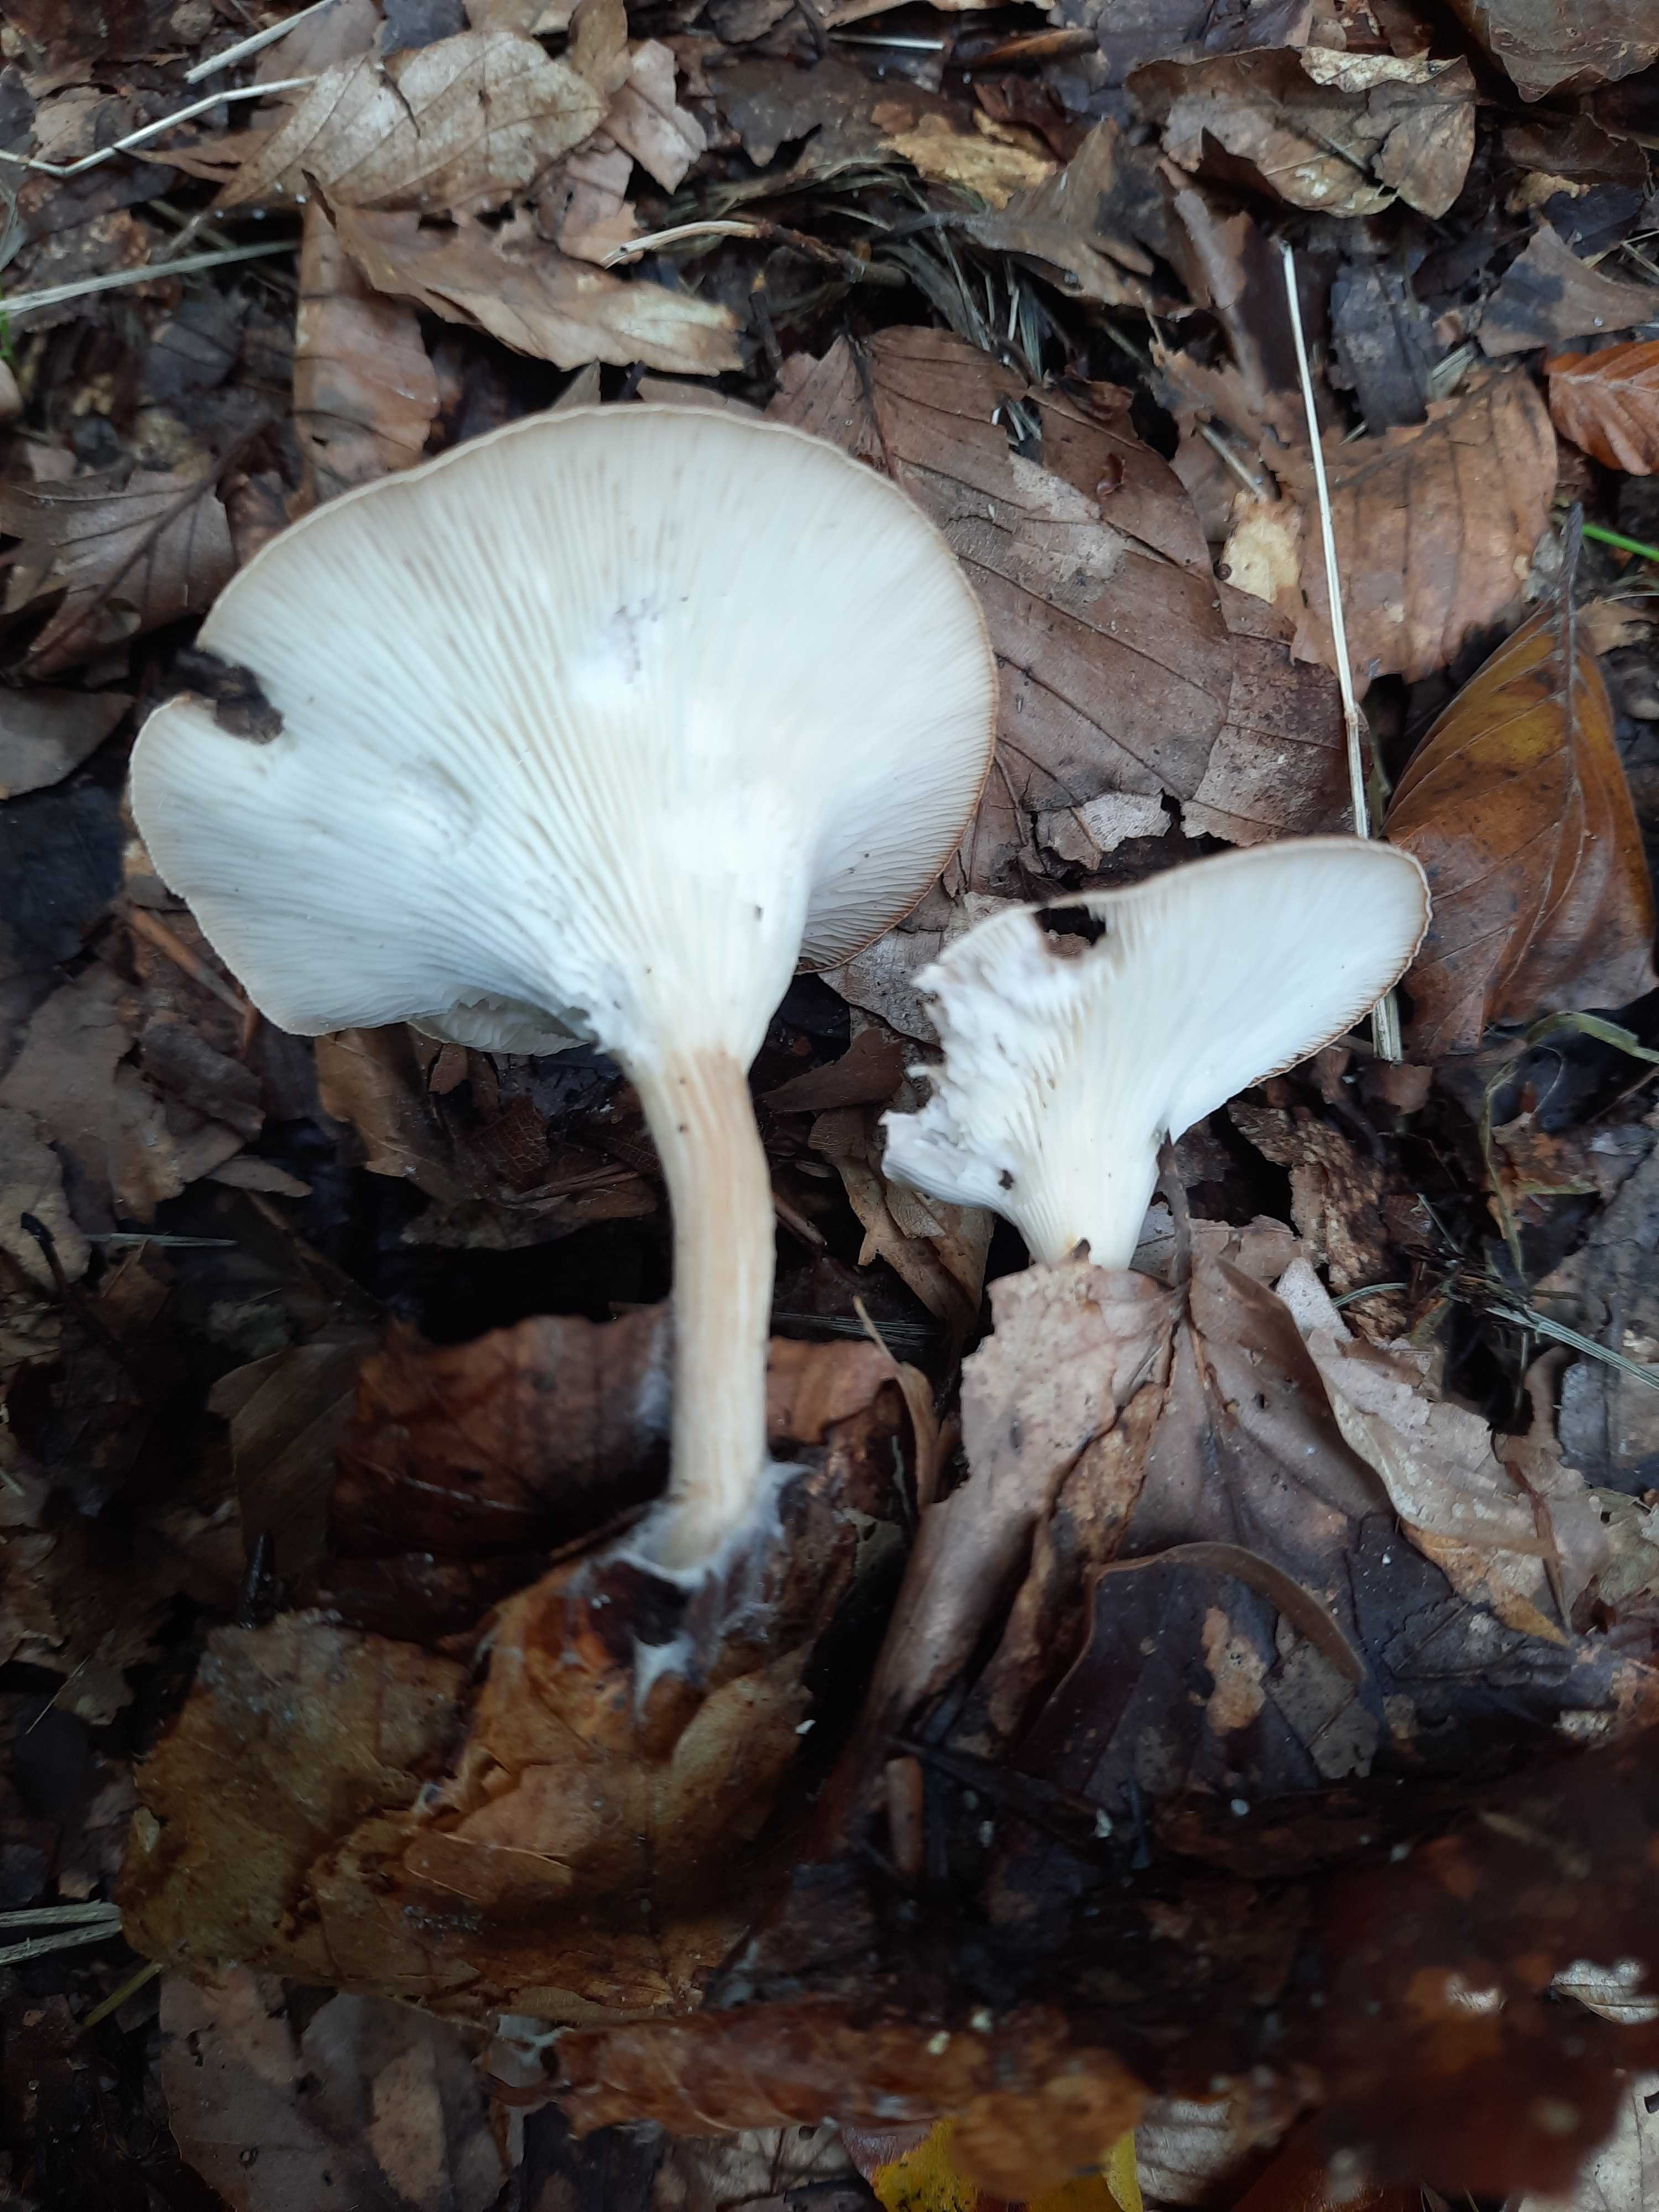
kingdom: Fungi
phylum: Basidiomycota
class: Agaricomycetes
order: Agaricales
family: Tricholomataceae
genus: Infundibulicybe
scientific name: Infundibulicybe
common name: tragthat
